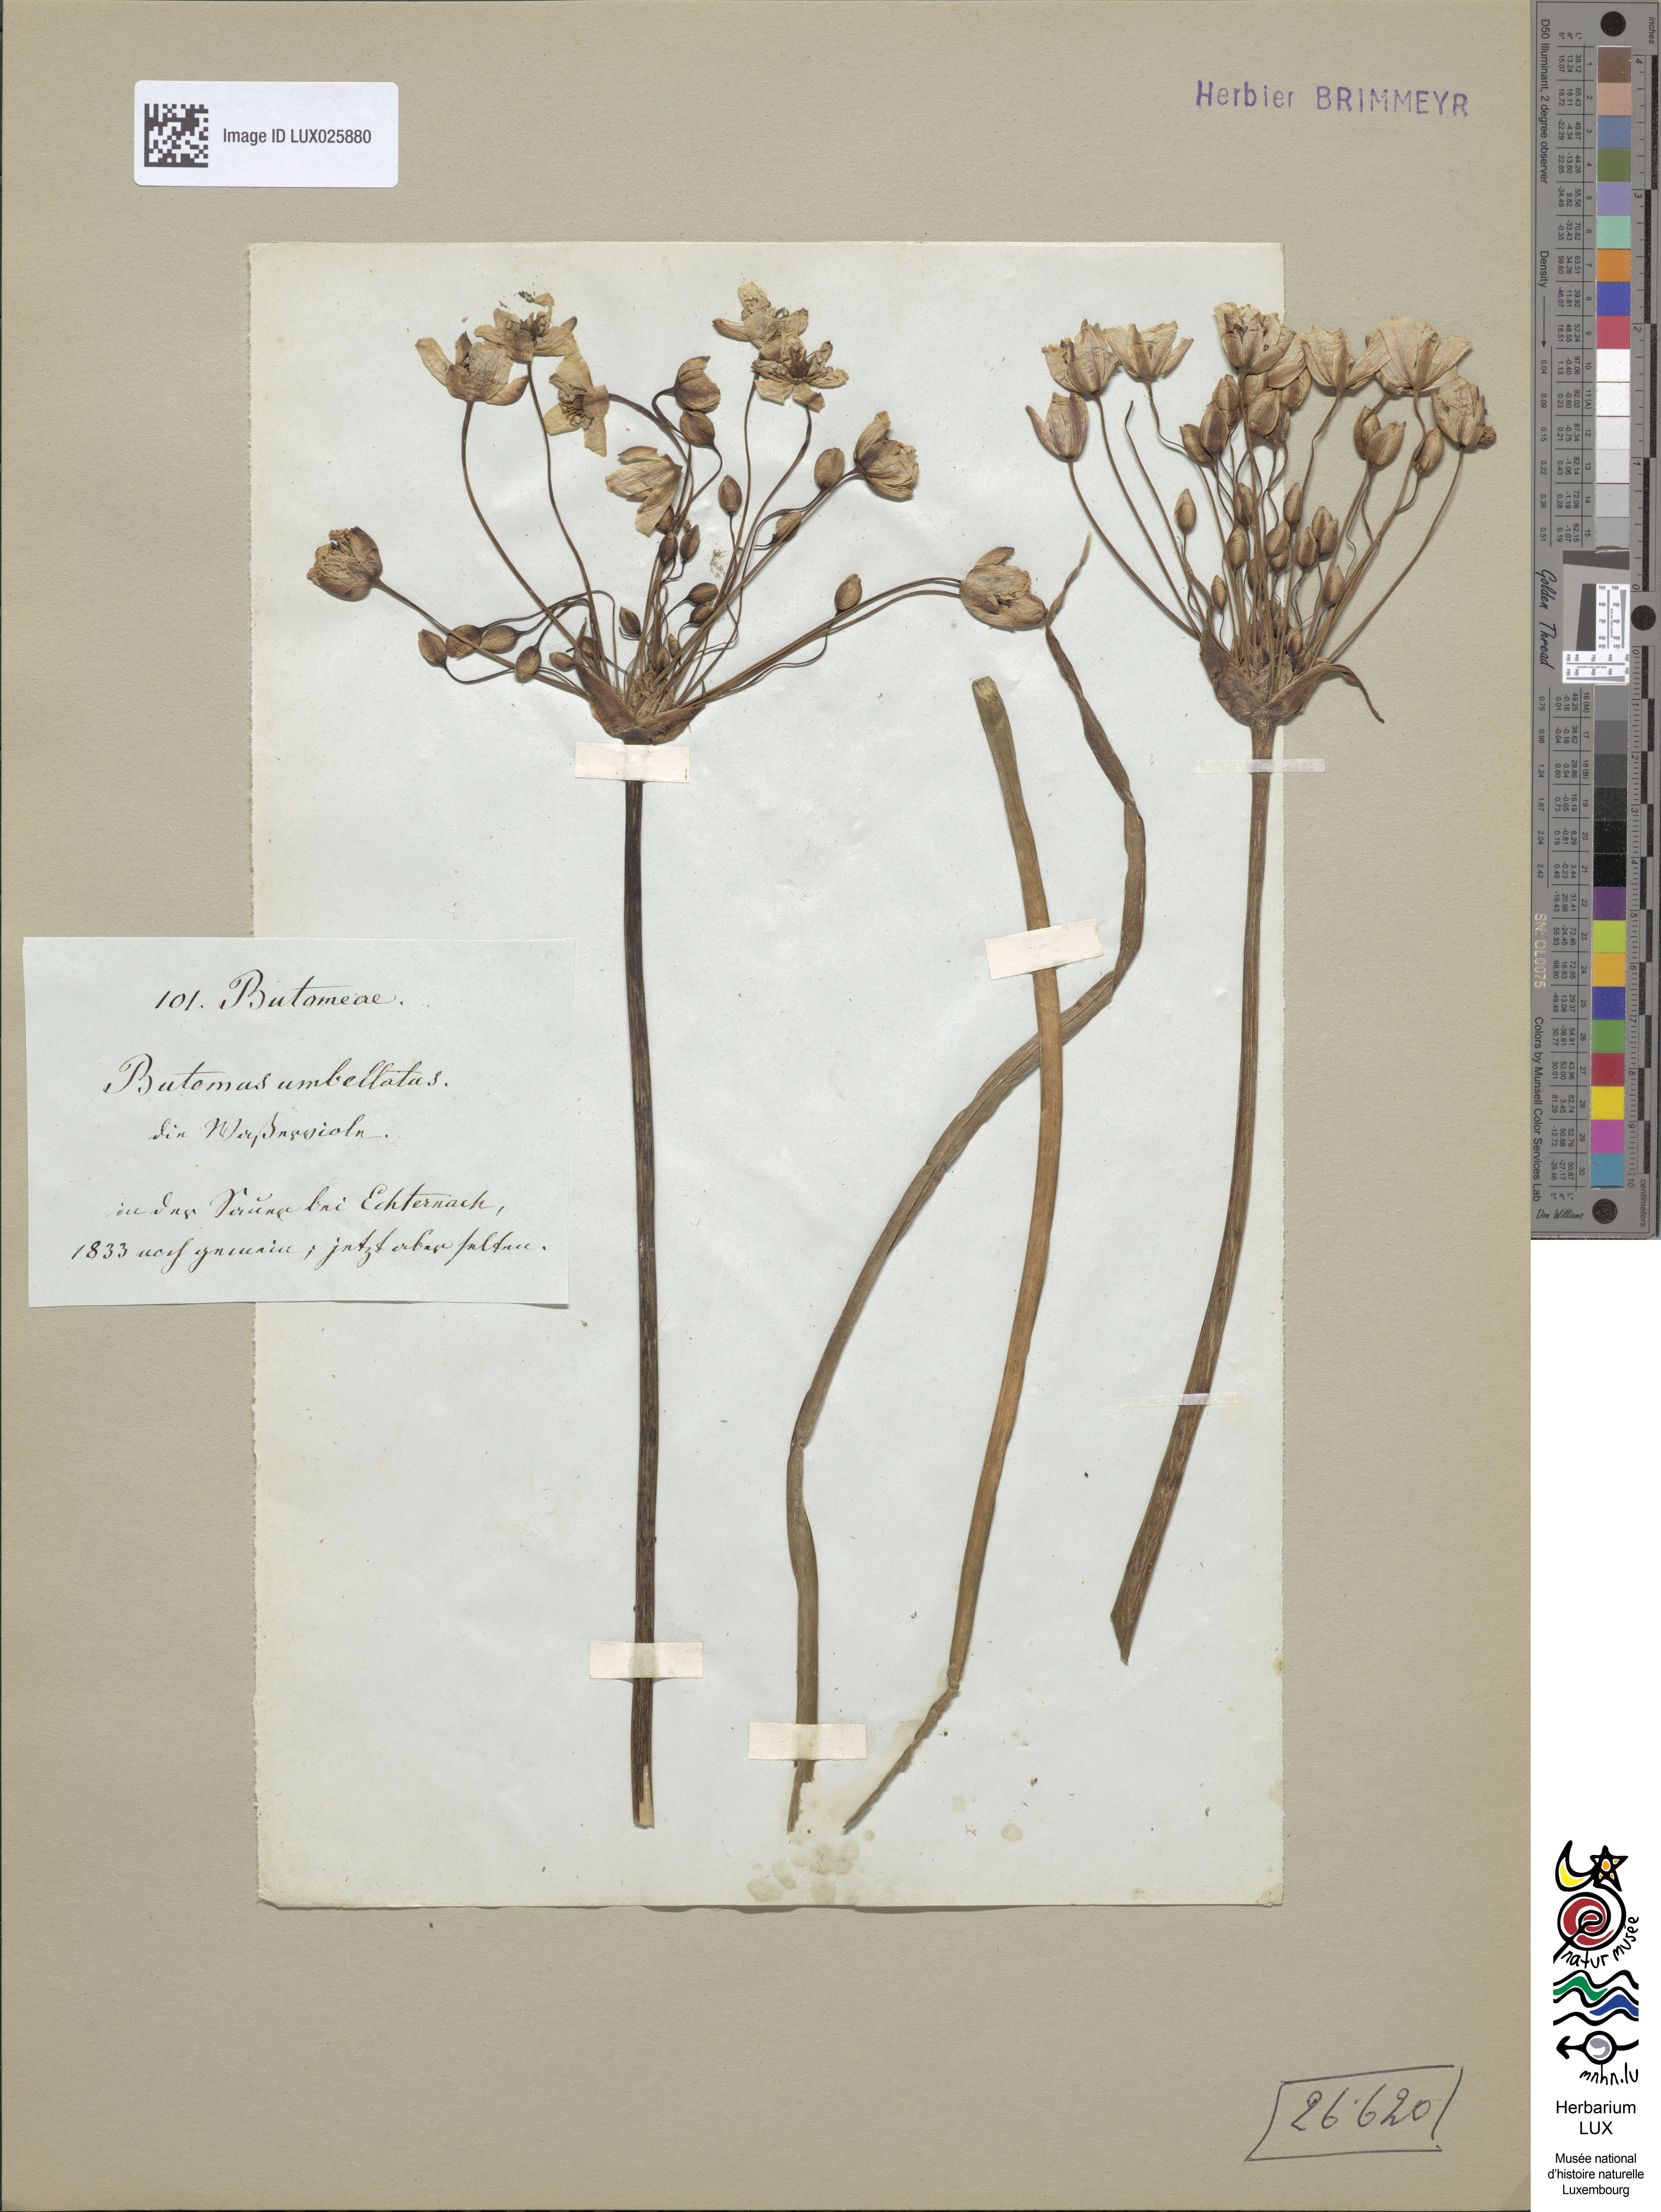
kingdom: Plantae
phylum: Tracheophyta
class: Liliopsida
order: Alismatales
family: Butomaceae
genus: Butomus
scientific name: Butomus umbellatus
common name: Flowering-rush
